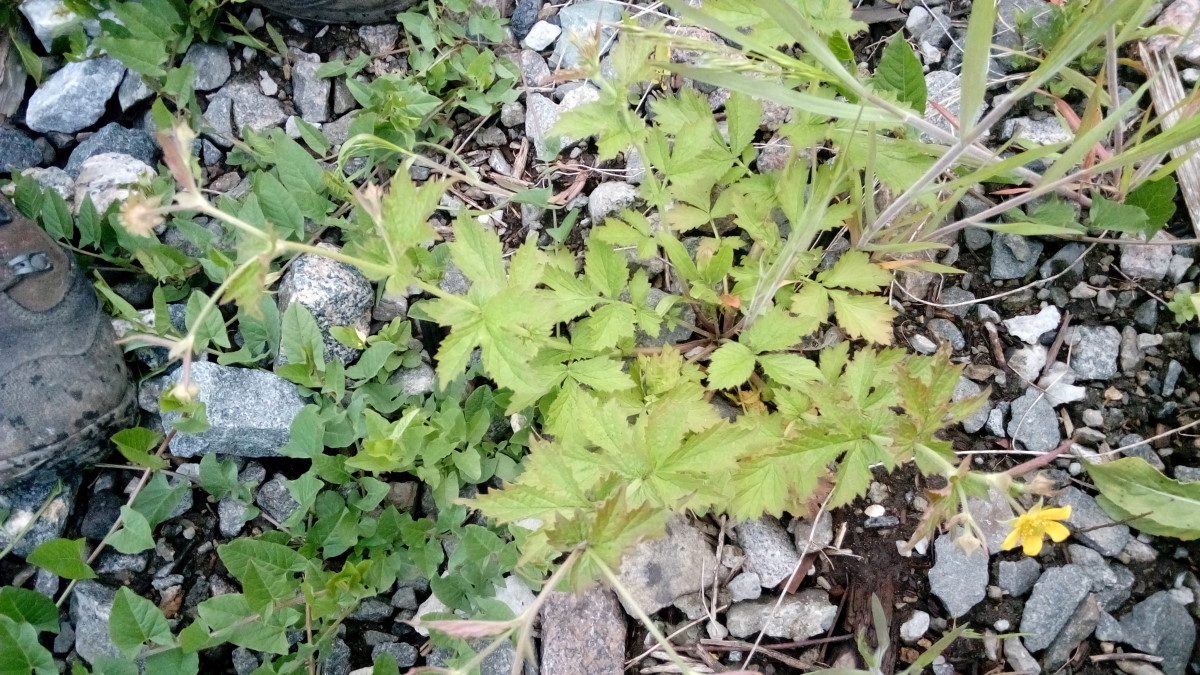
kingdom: Plantae
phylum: Tracheophyta
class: Magnoliopsida
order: Rosales
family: Rosaceae
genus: Geum
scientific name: Geum
